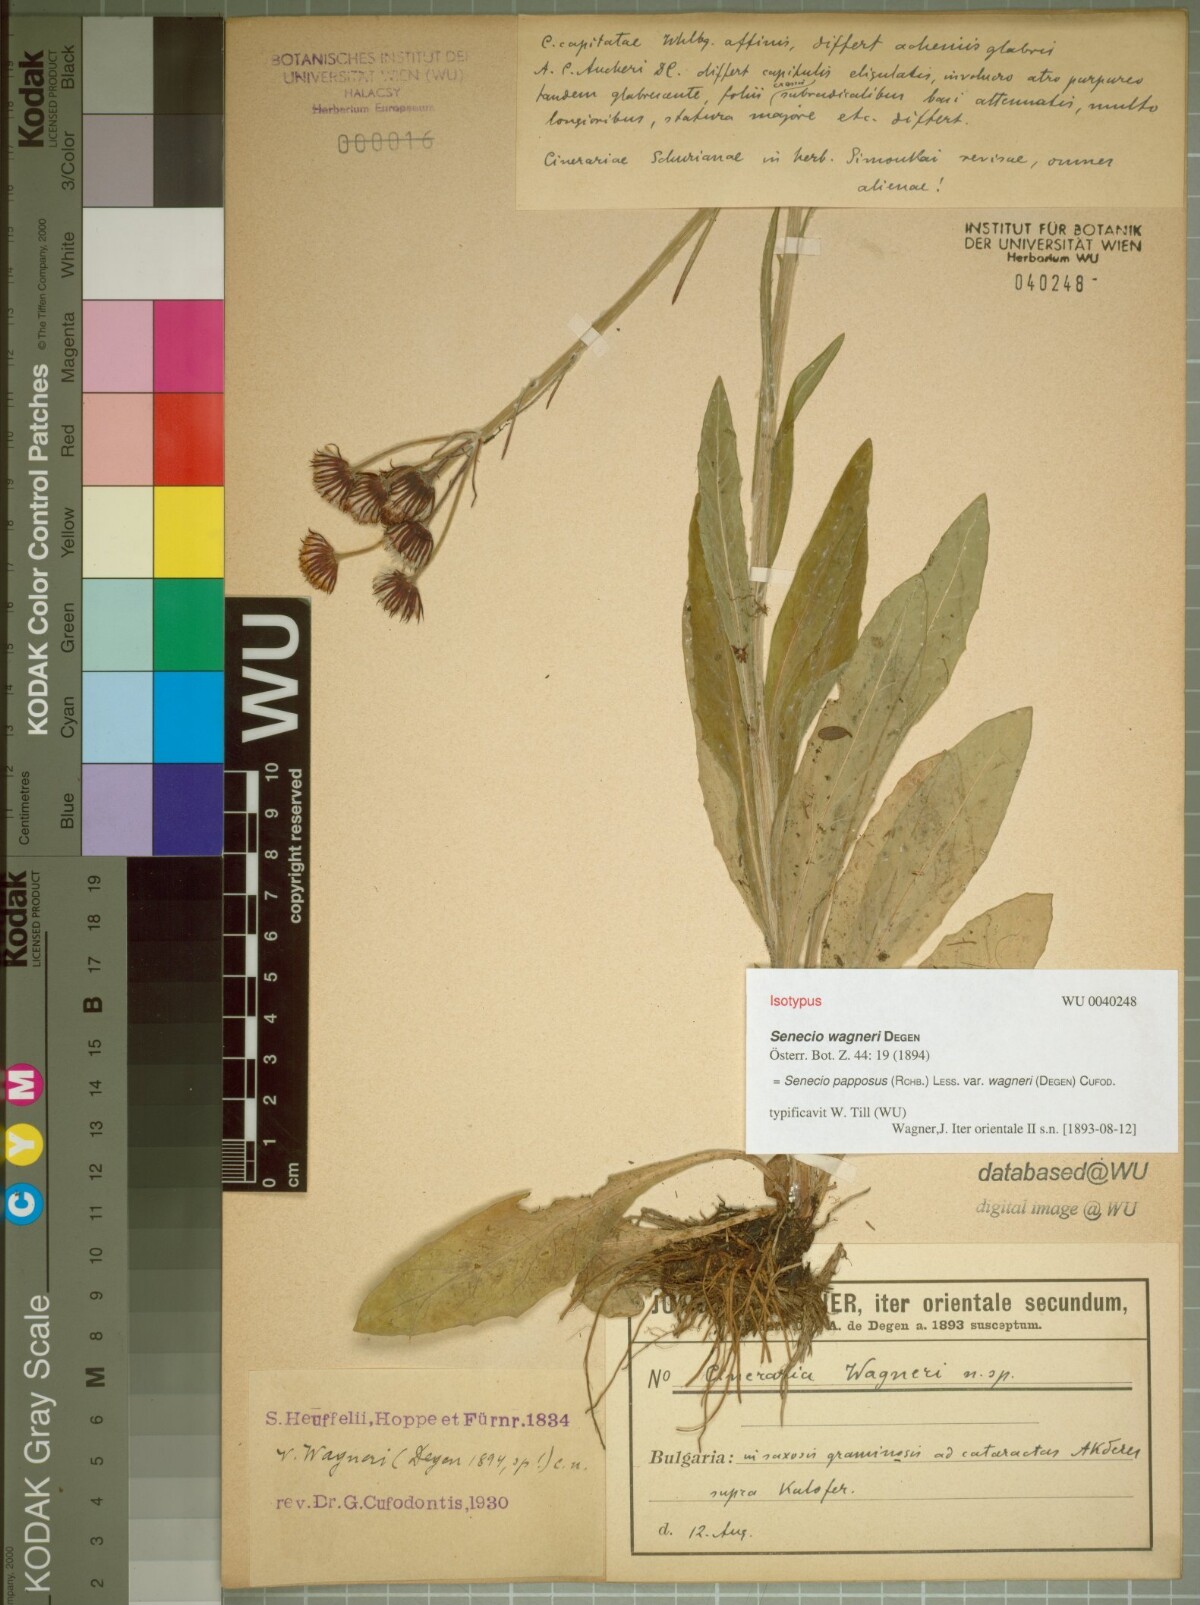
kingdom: Plantae
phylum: Tracheophyta
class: Magnoliopsida
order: Asterales
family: Asteraceae
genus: Tephroseris
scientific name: Tephroseris papposa
